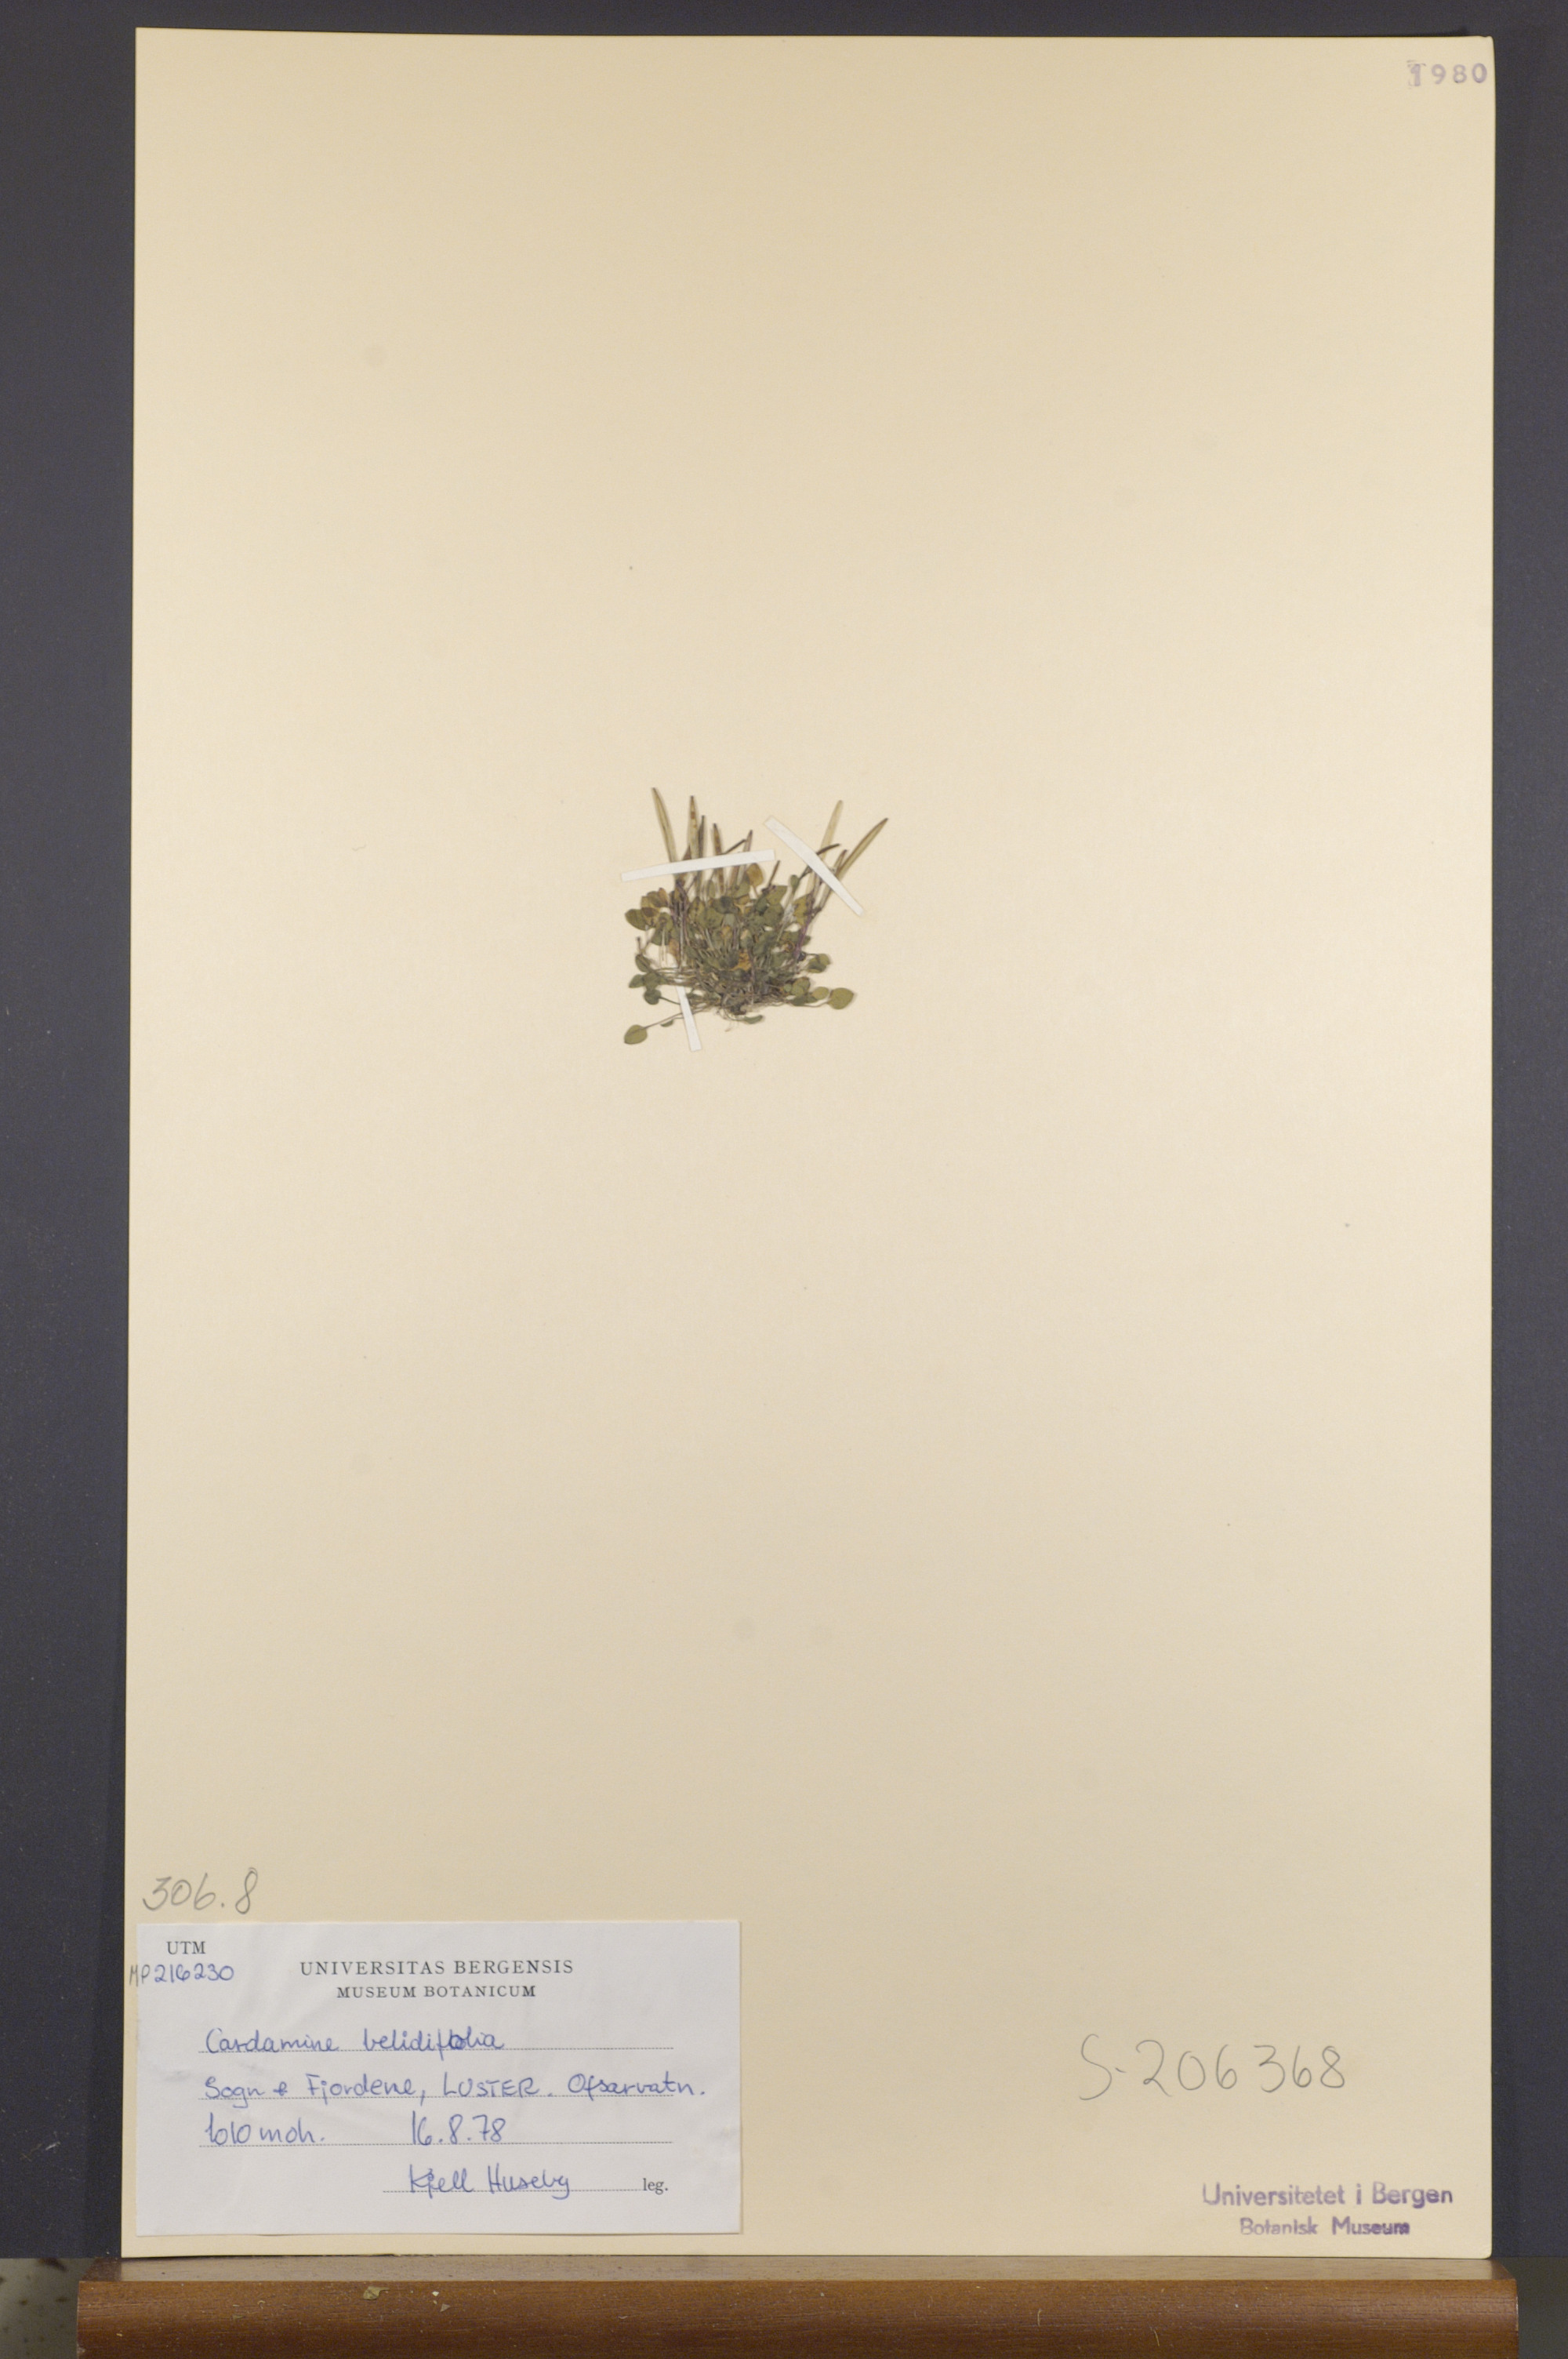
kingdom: Plantae
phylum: Tracheophyta
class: Magnoliopsida
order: Brassicales
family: Brassicaceae
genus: Cardamine
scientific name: Cardamine bellidifolia
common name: Alpine bittercress
